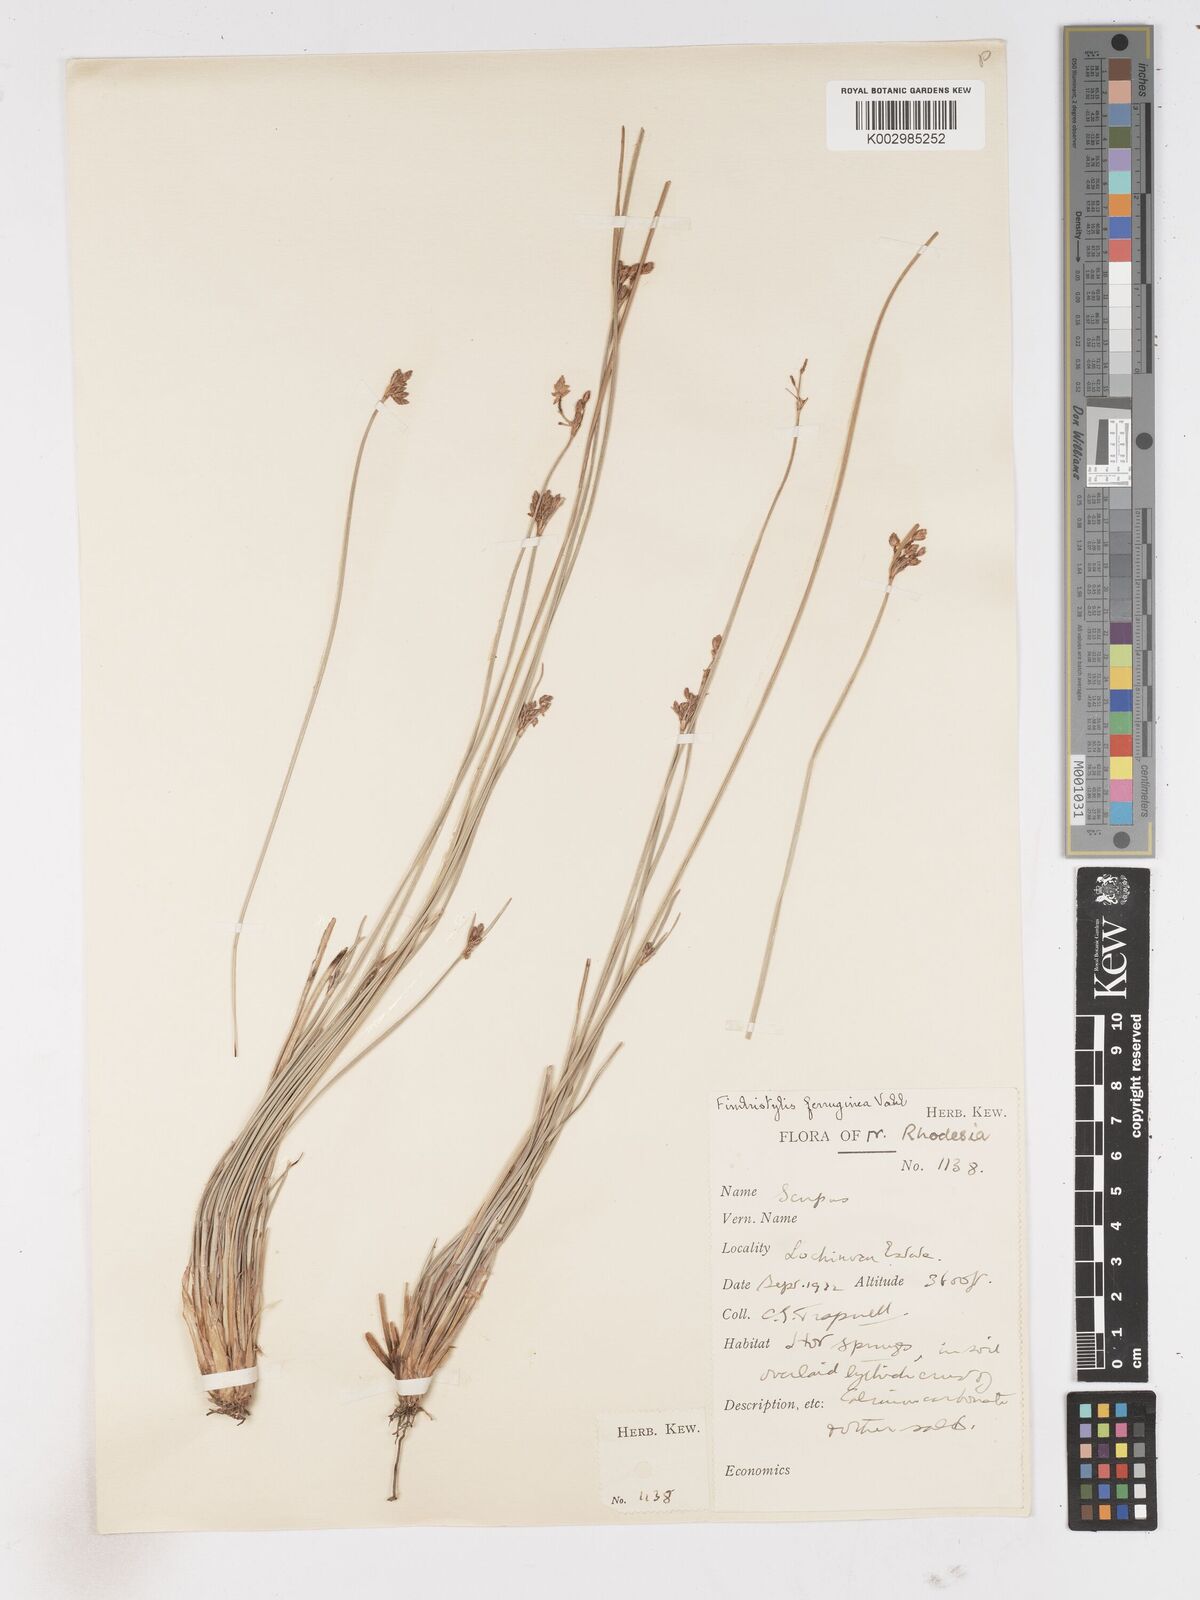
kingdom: Plantae
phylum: Tracheophyta
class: Liliopsida
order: Poales
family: Cyperaceae
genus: Fimbristylis
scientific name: Fimbristylis ferruginea
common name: West indian fimbry
